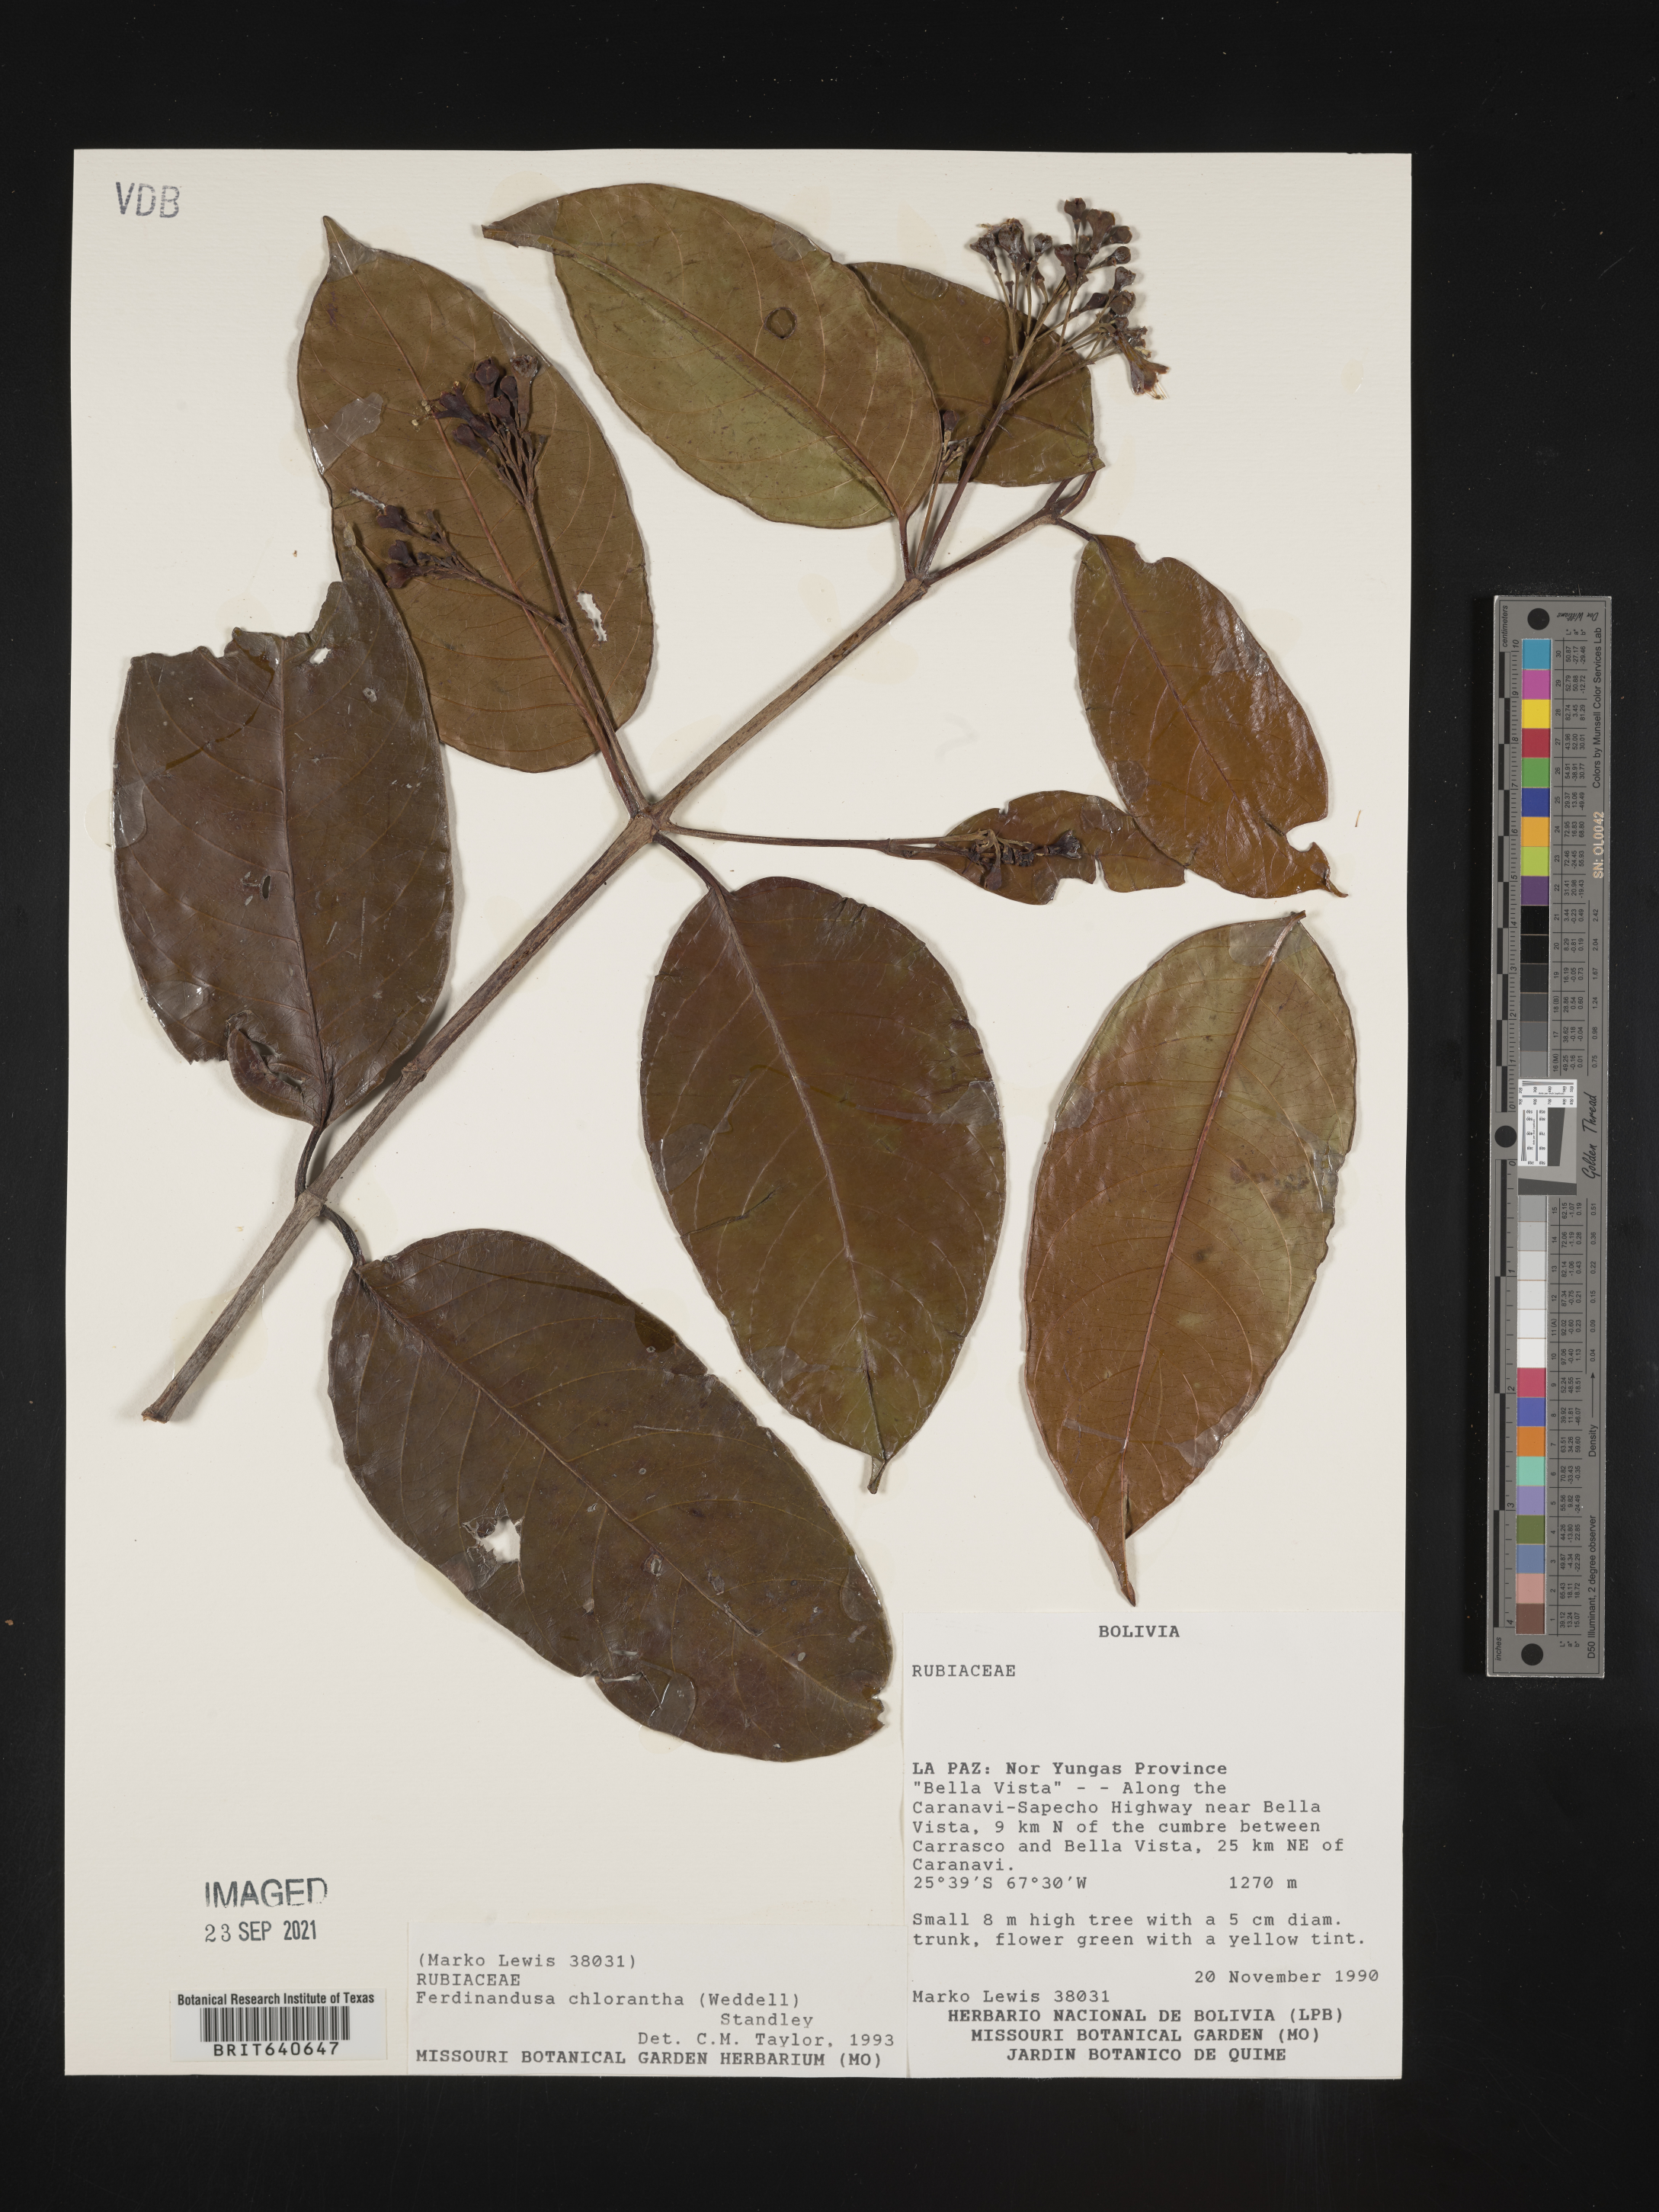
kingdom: Plantae
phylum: Tracheophyta
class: Magnoliopsida
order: Gentianales
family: Rubiaceae
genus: Ferdinandusa
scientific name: Ferdinandusa
